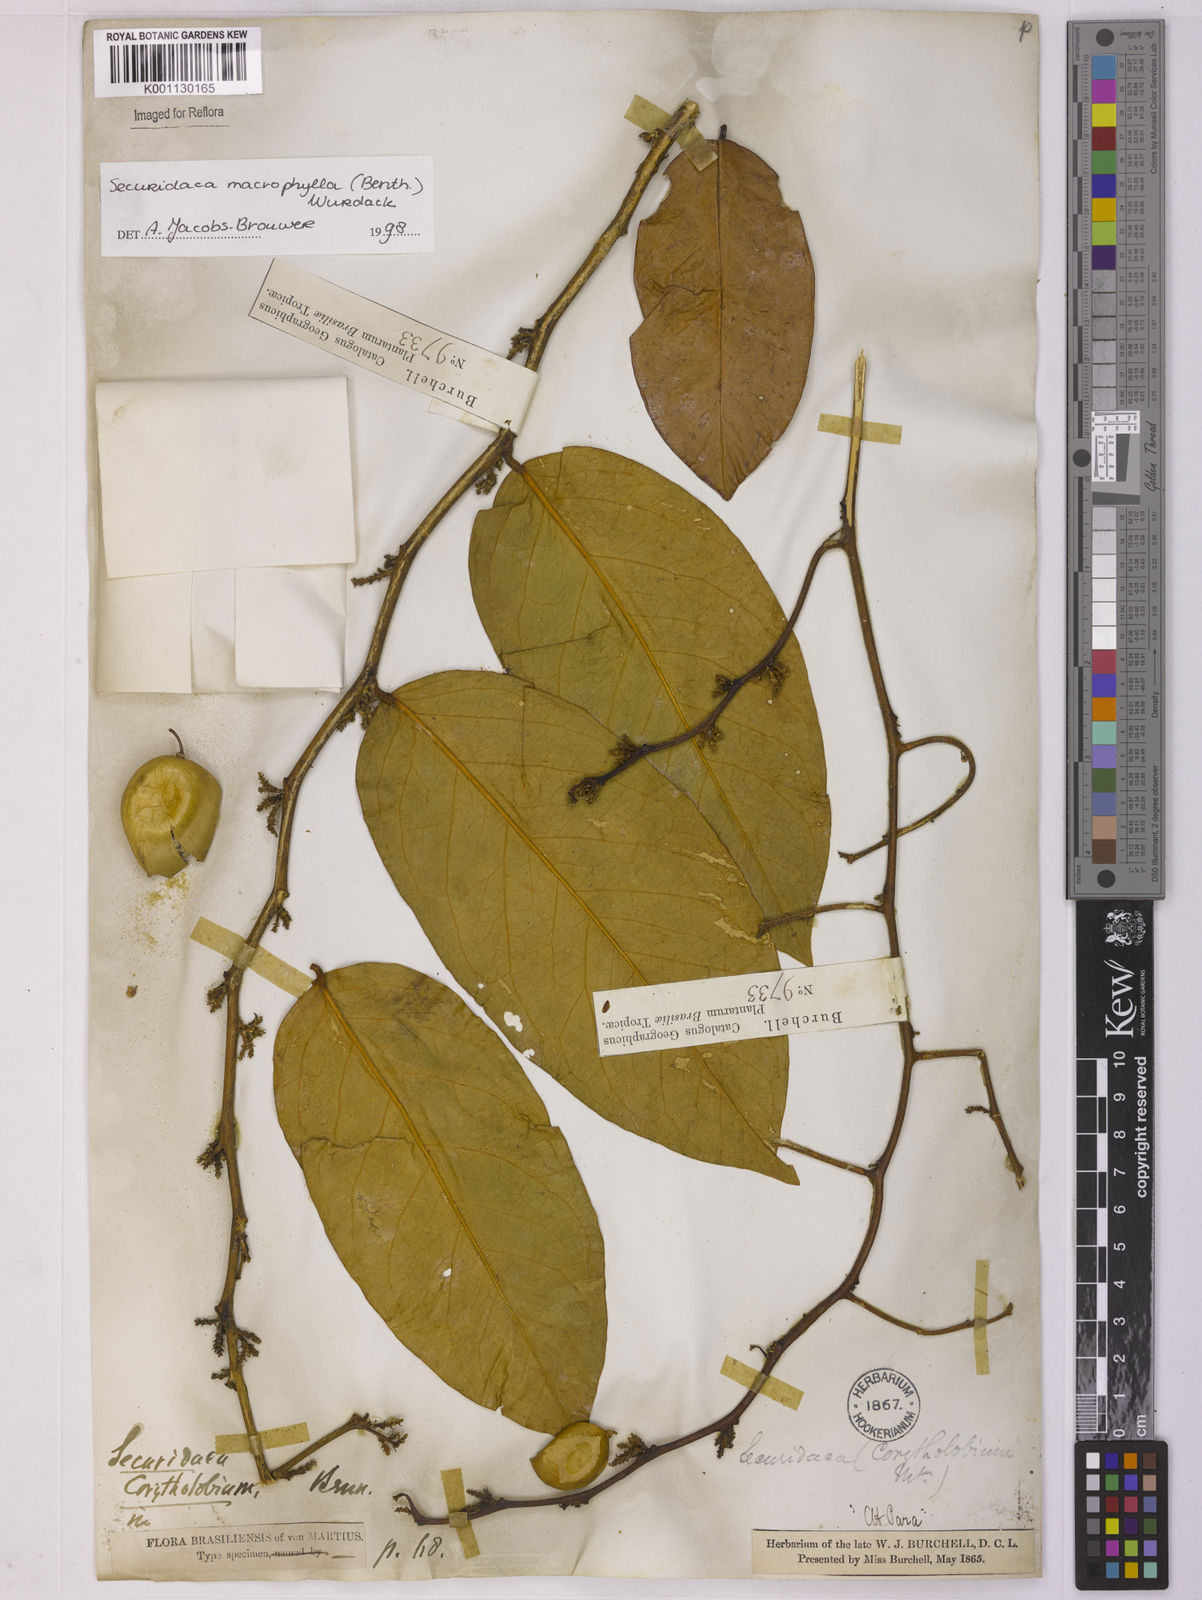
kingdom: Plantae
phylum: Tracheophyta
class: Magnoliopsida
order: Fabales
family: Polygalaceae
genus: Securidaca
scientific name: Securidaca calophylla
